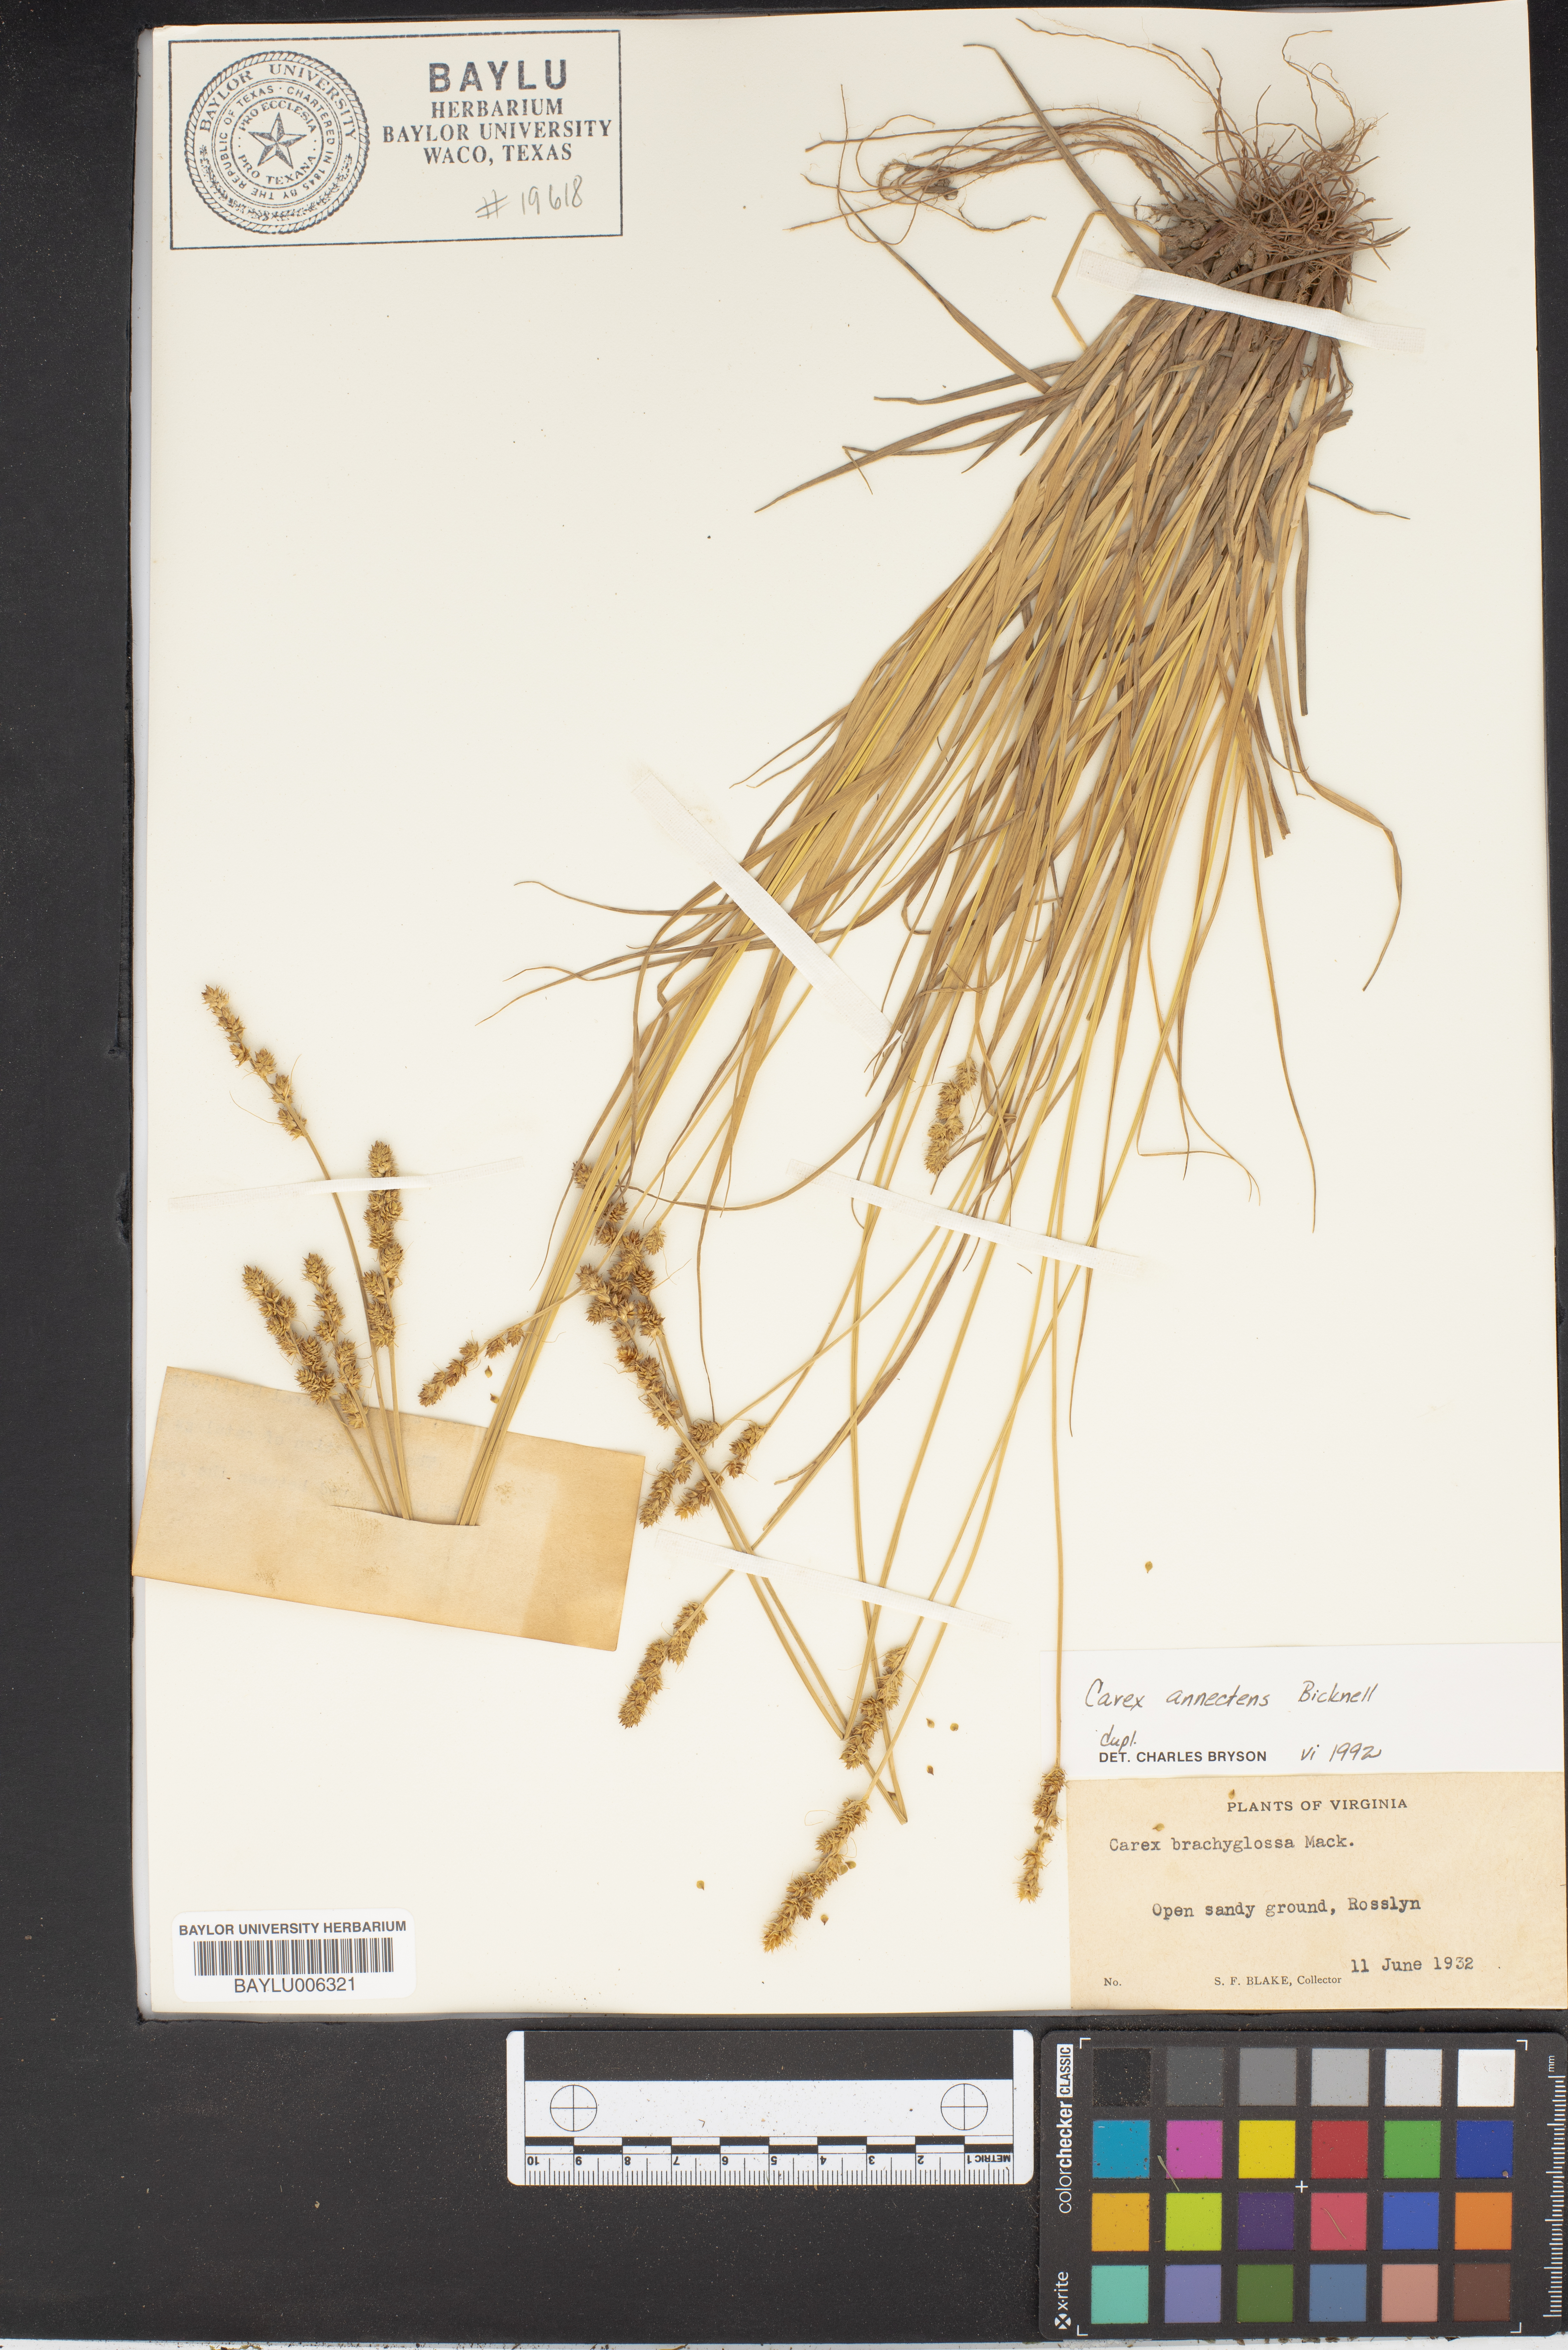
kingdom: Plantae
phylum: Tracheophyta
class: Liliopsida
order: Poales
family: Cyperaceae
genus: Carex
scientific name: Carex annectens
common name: Large fox sedge
